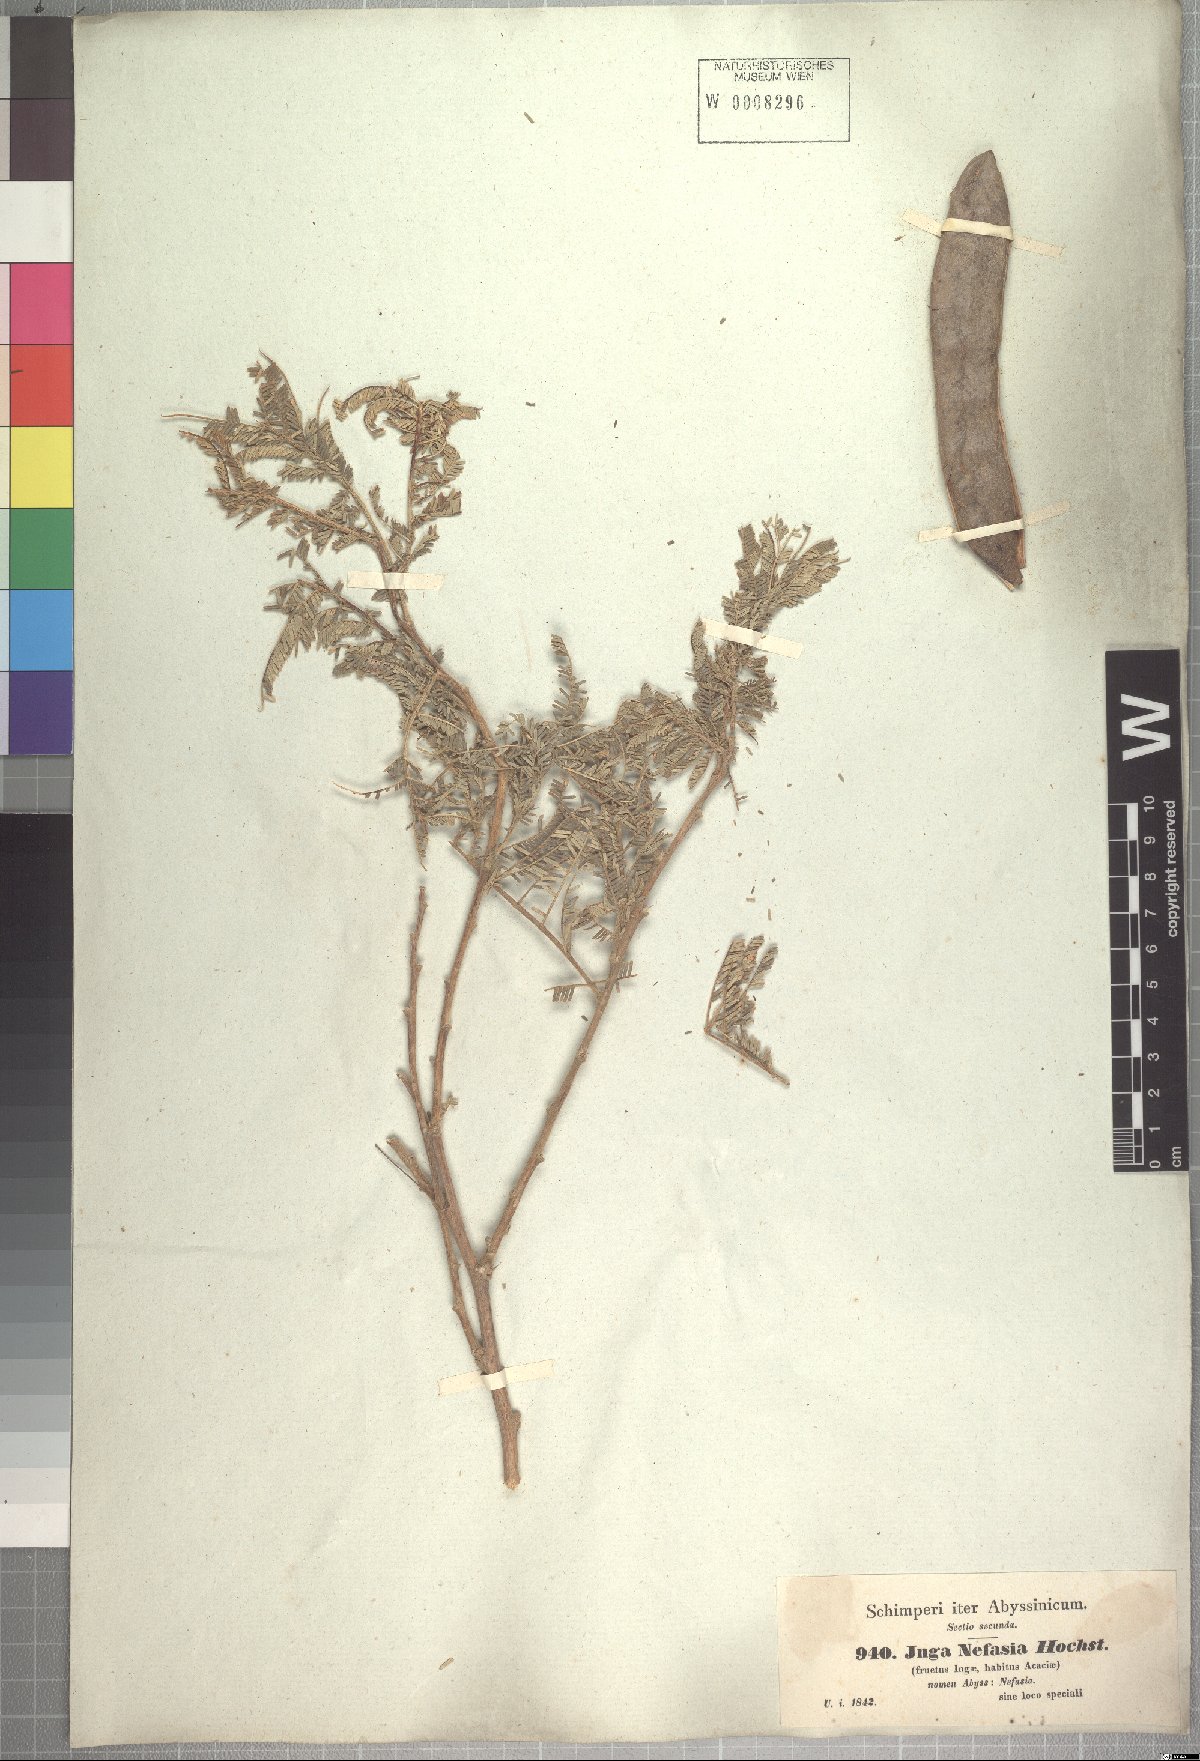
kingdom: Plantae
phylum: Tracheophyta
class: Magnoliopsida
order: Fabales
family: Fabaceae
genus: Vachellia
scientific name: Vachellia sieberiana
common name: Flat-topped thorn
